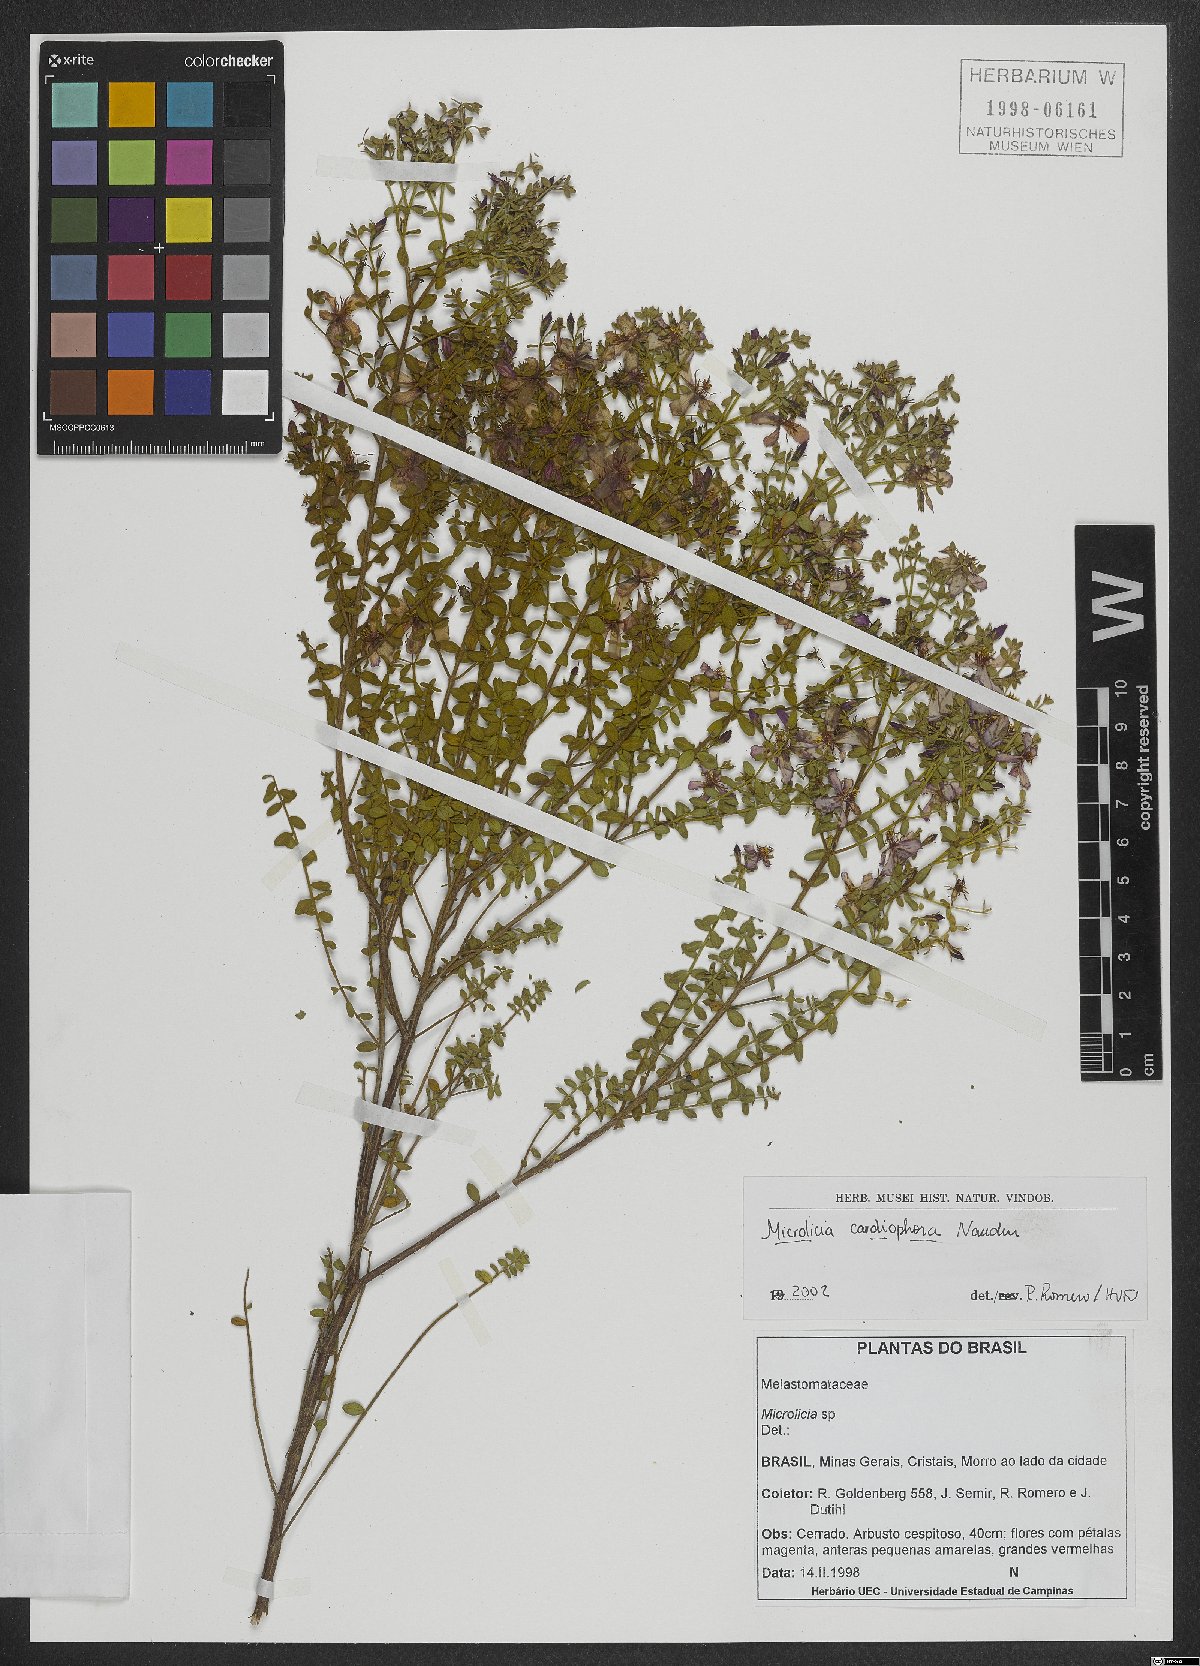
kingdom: Plantae
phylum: Tracheophyta
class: Magnoliopsida
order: Myrtales
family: Melastomataceae
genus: Microlicia
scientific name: Microlicia cardiophora
